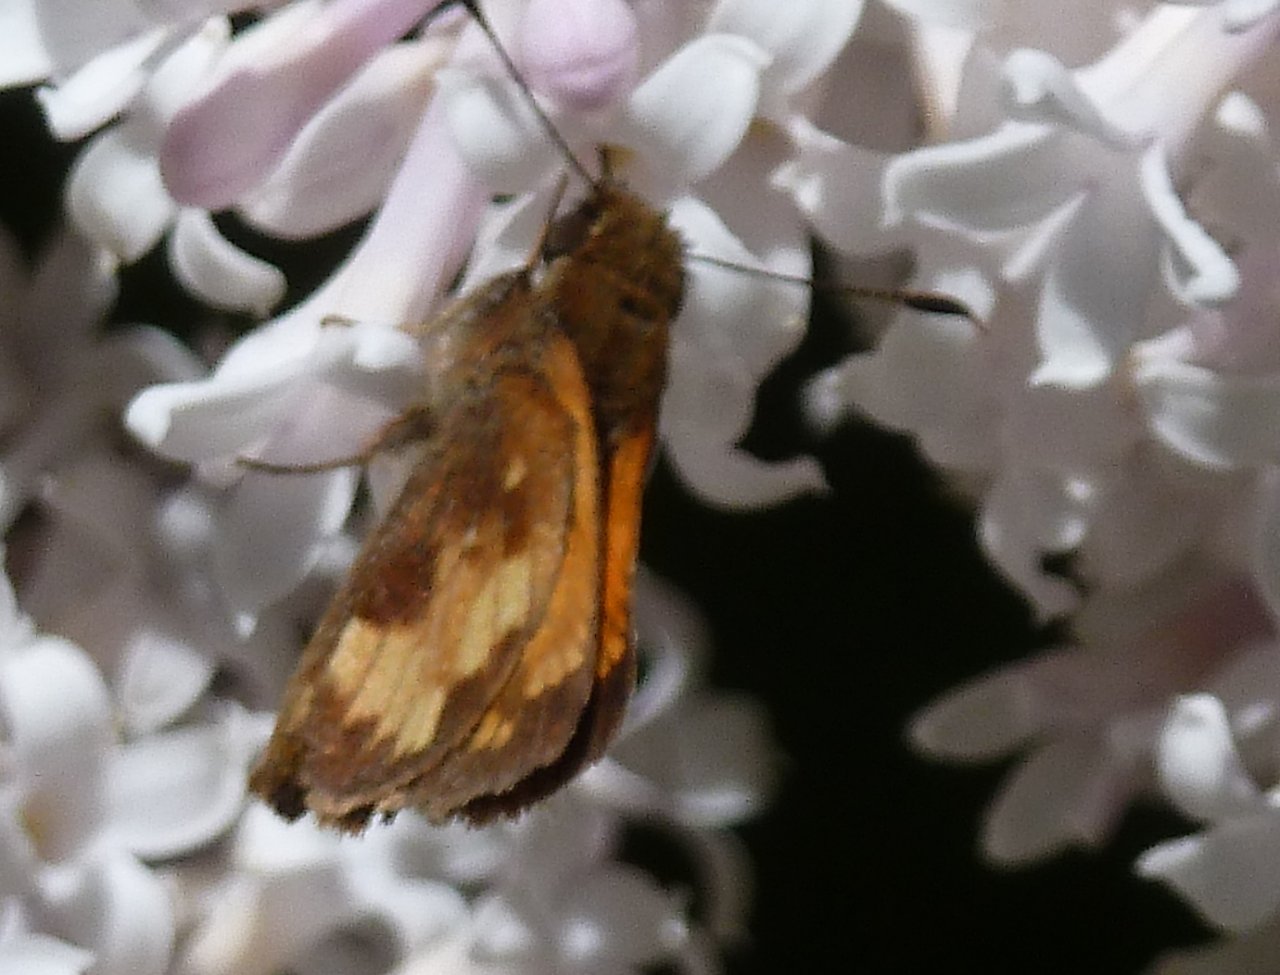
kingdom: Animalia
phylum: Arthropoda
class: Insecta
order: Lepidoptera
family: Hesperiidae
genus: Lon
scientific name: Lon hobomok
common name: Hobomok Skipper
